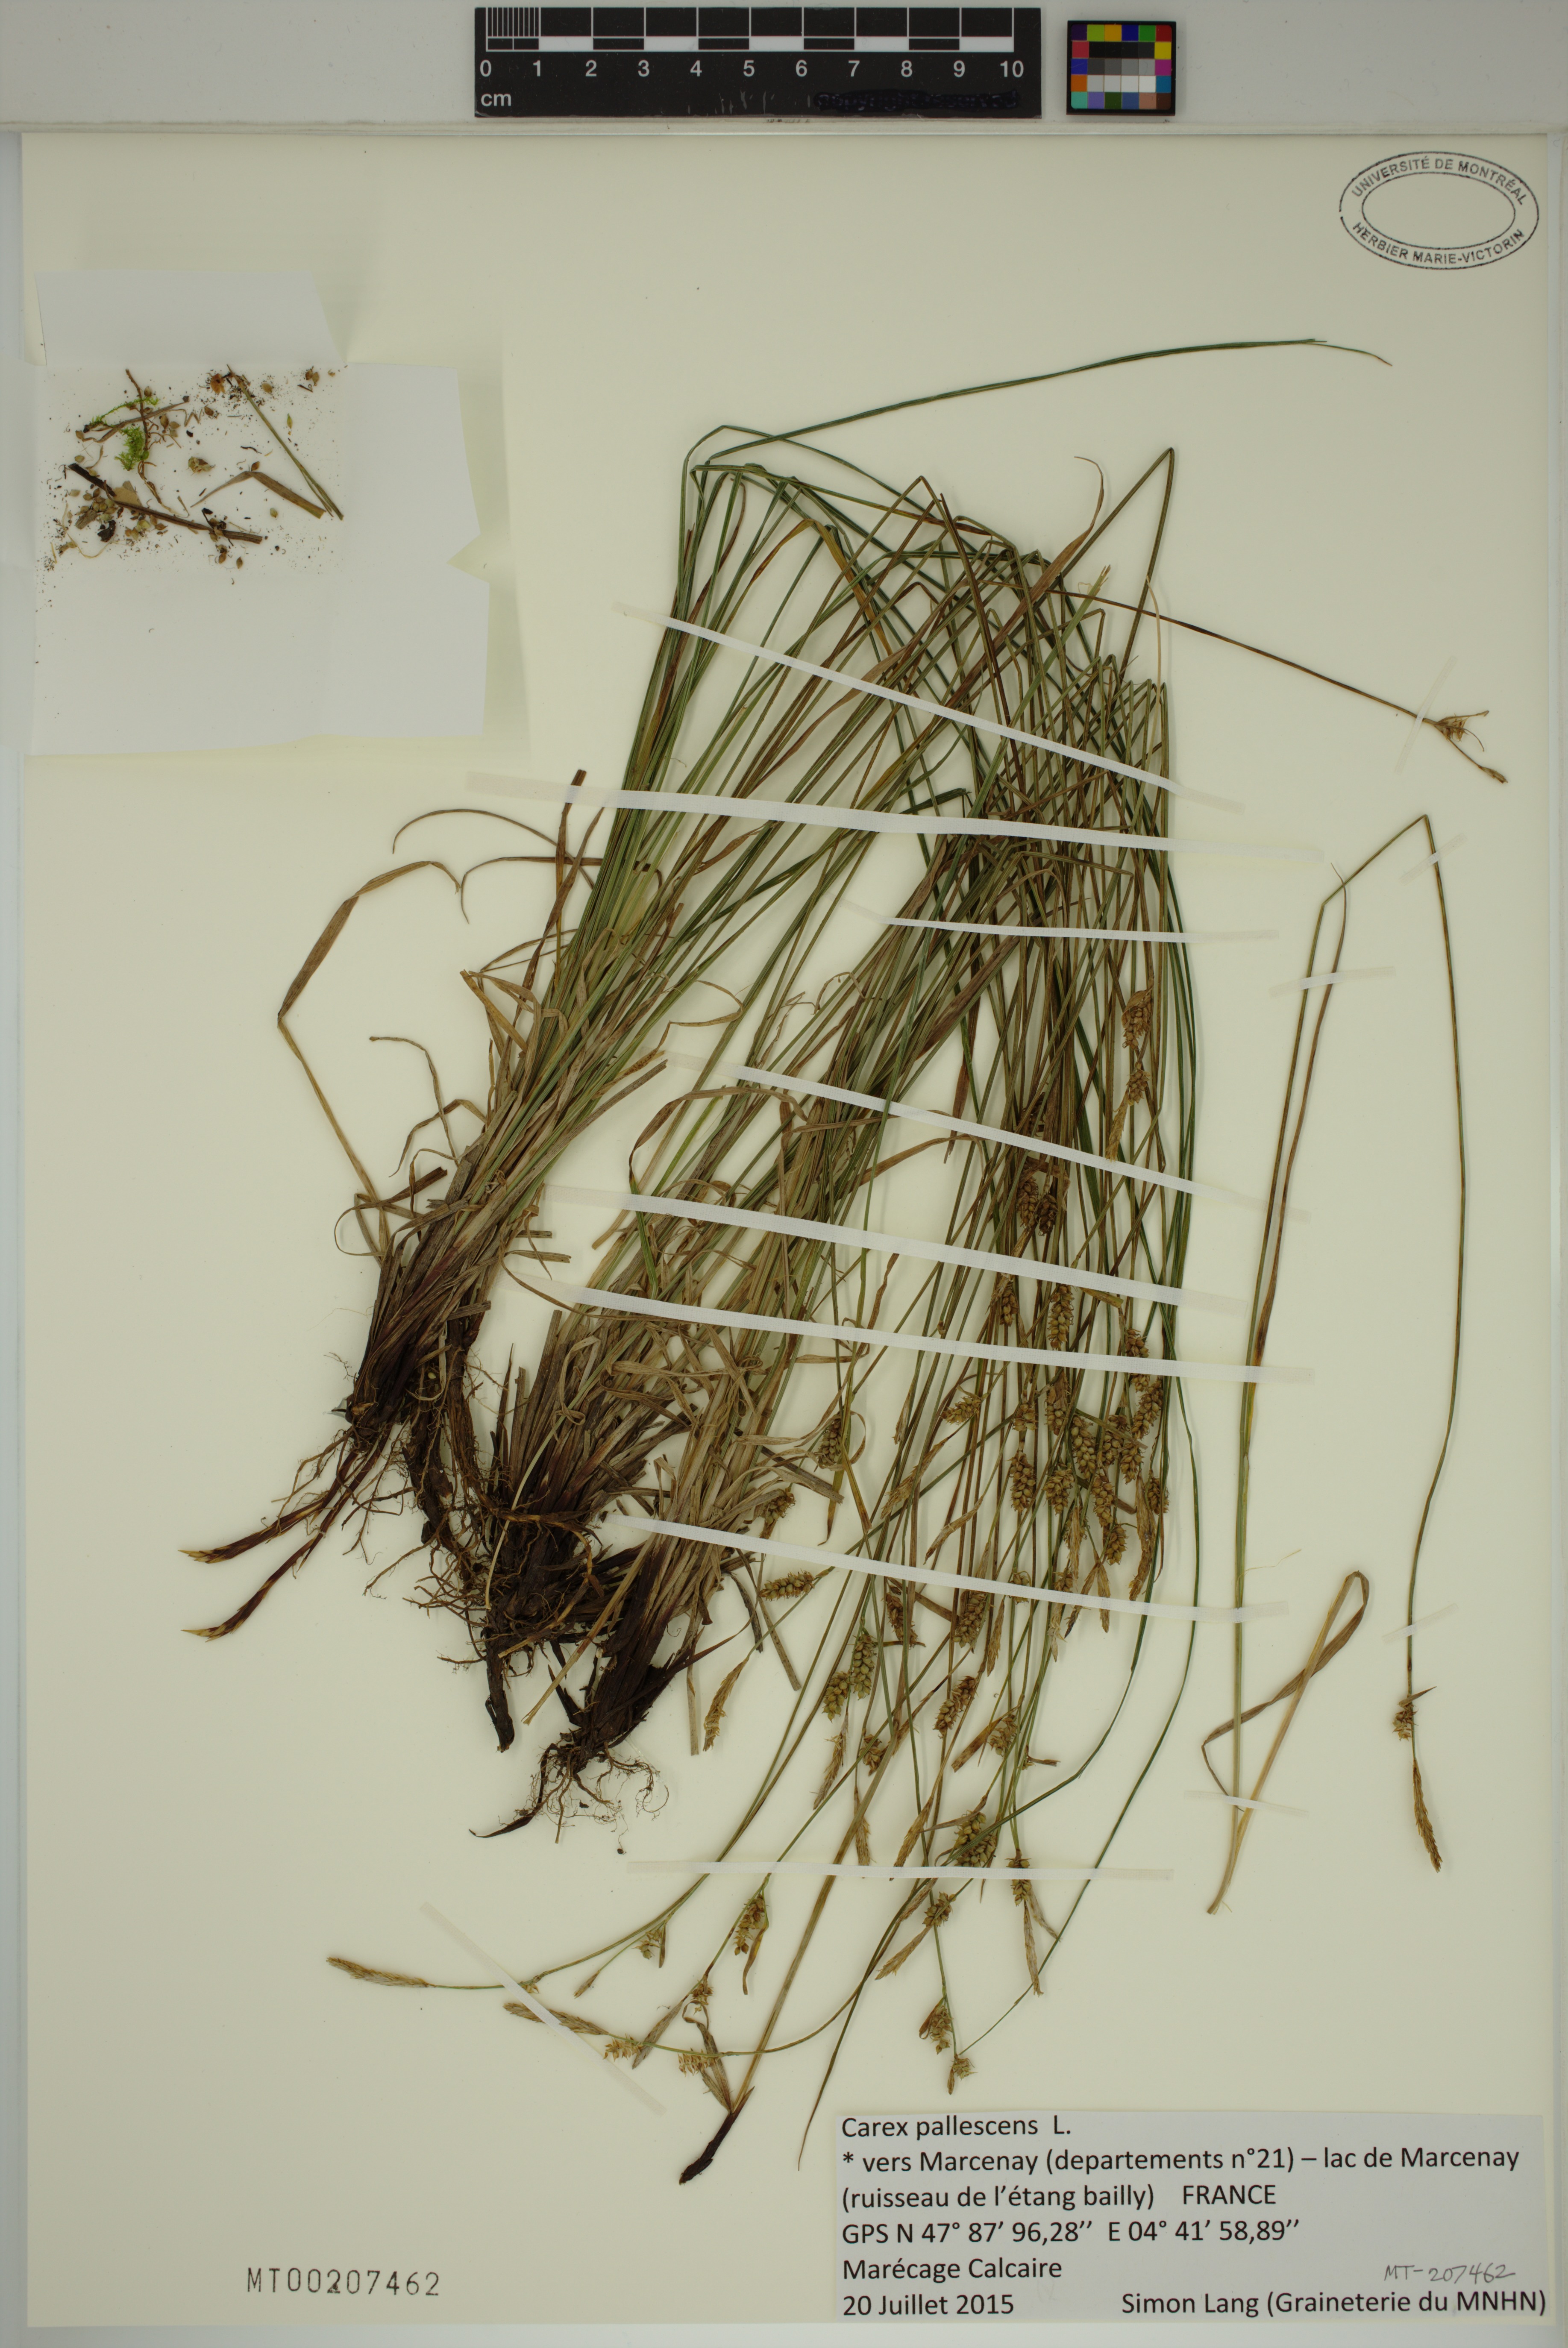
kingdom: Plantae
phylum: Tracheophyta
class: Liliopsida
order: Poales
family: Cyperaceae
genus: Carex
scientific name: Carex pallescens
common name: Pale sedge
